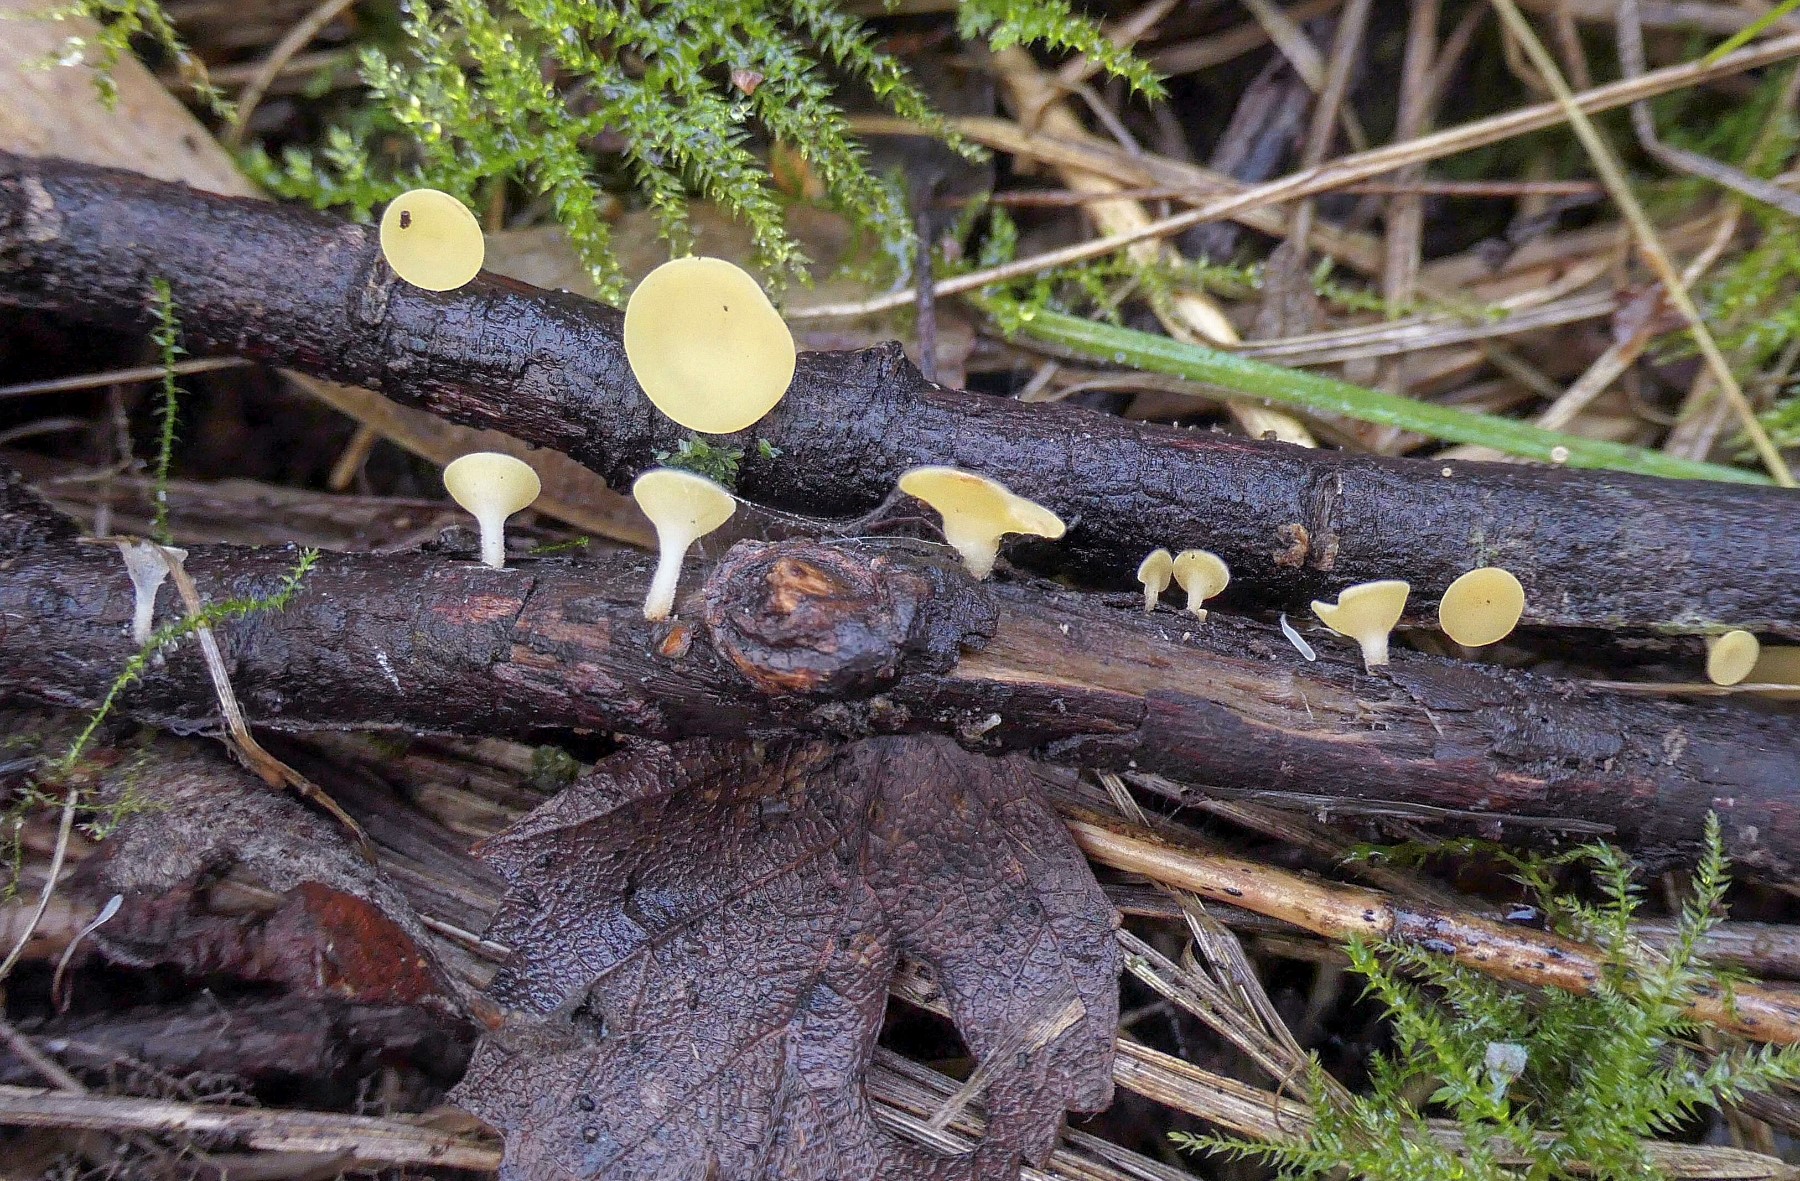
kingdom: Fungi
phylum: Ascomycota
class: Leotiomycetes
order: Helotiales
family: Helotiaceae
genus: Hymenoscyphus
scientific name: Hymenoscyphus
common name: stilkskive
